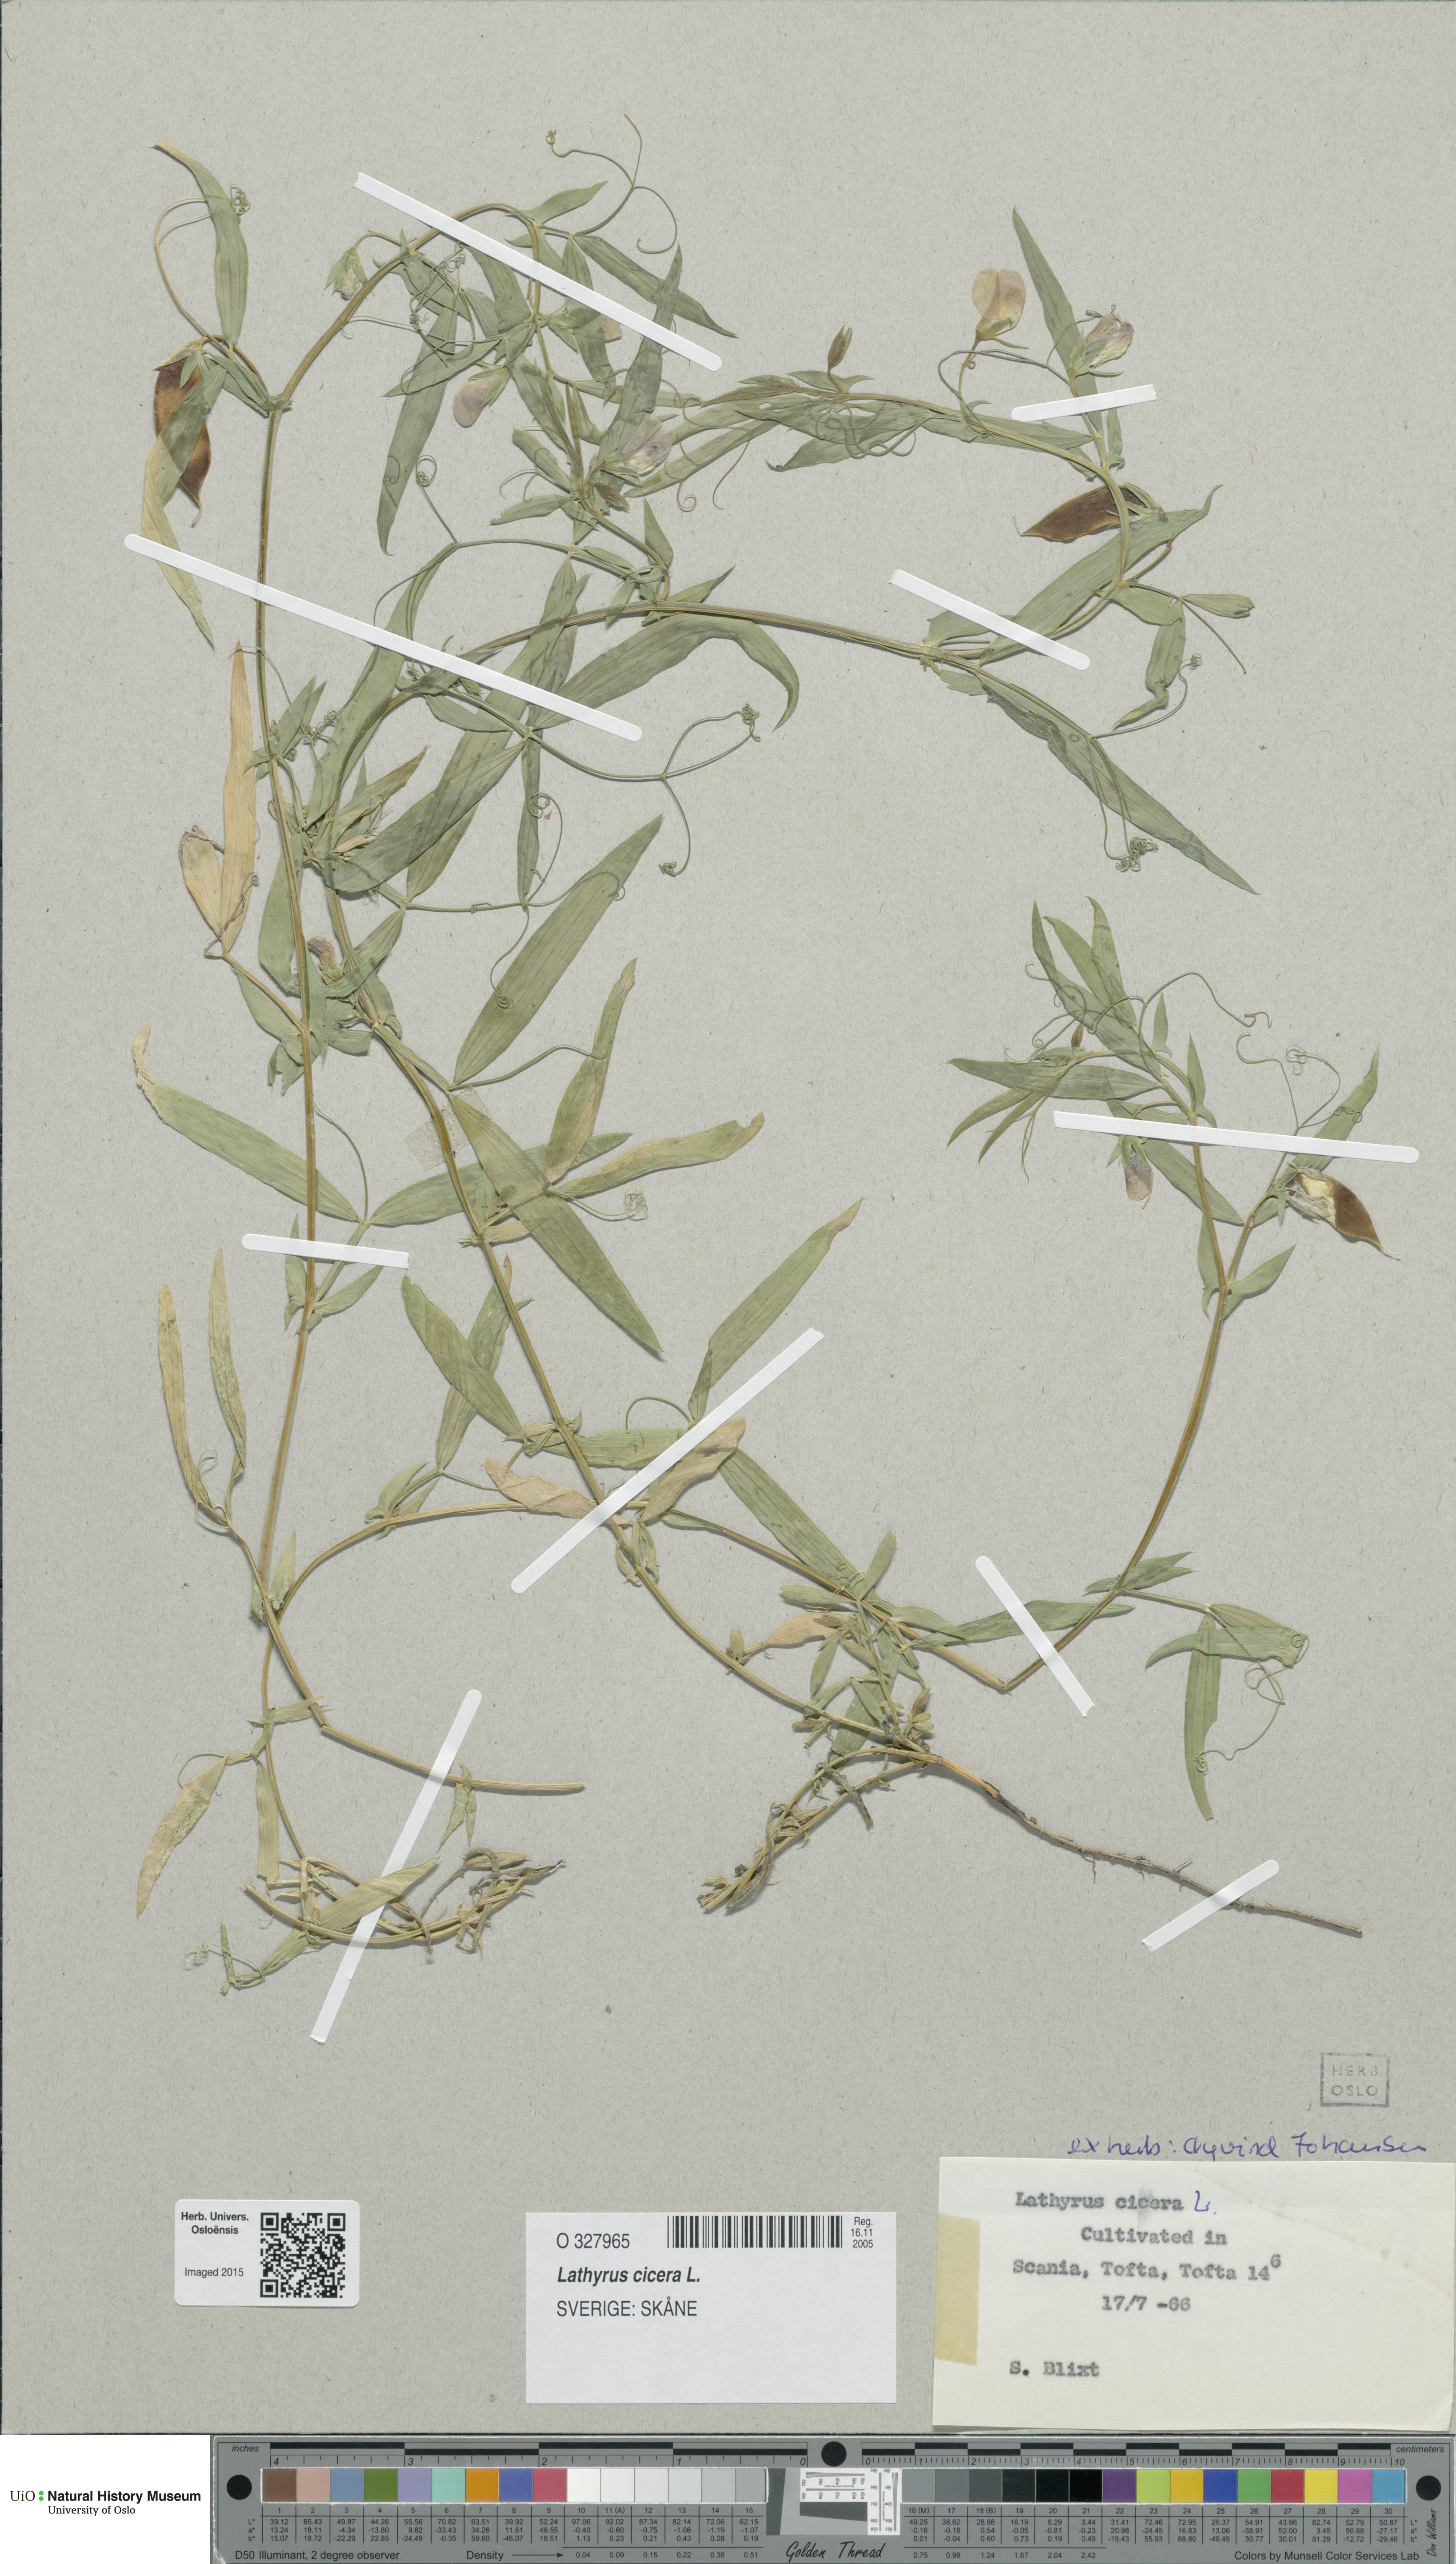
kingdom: Plantae
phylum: Tracheophyta
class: Magnoliopsida
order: Fabales
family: Fabaceae
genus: Lathyrus
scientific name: Lathyrus cicera
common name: Red vetchling
